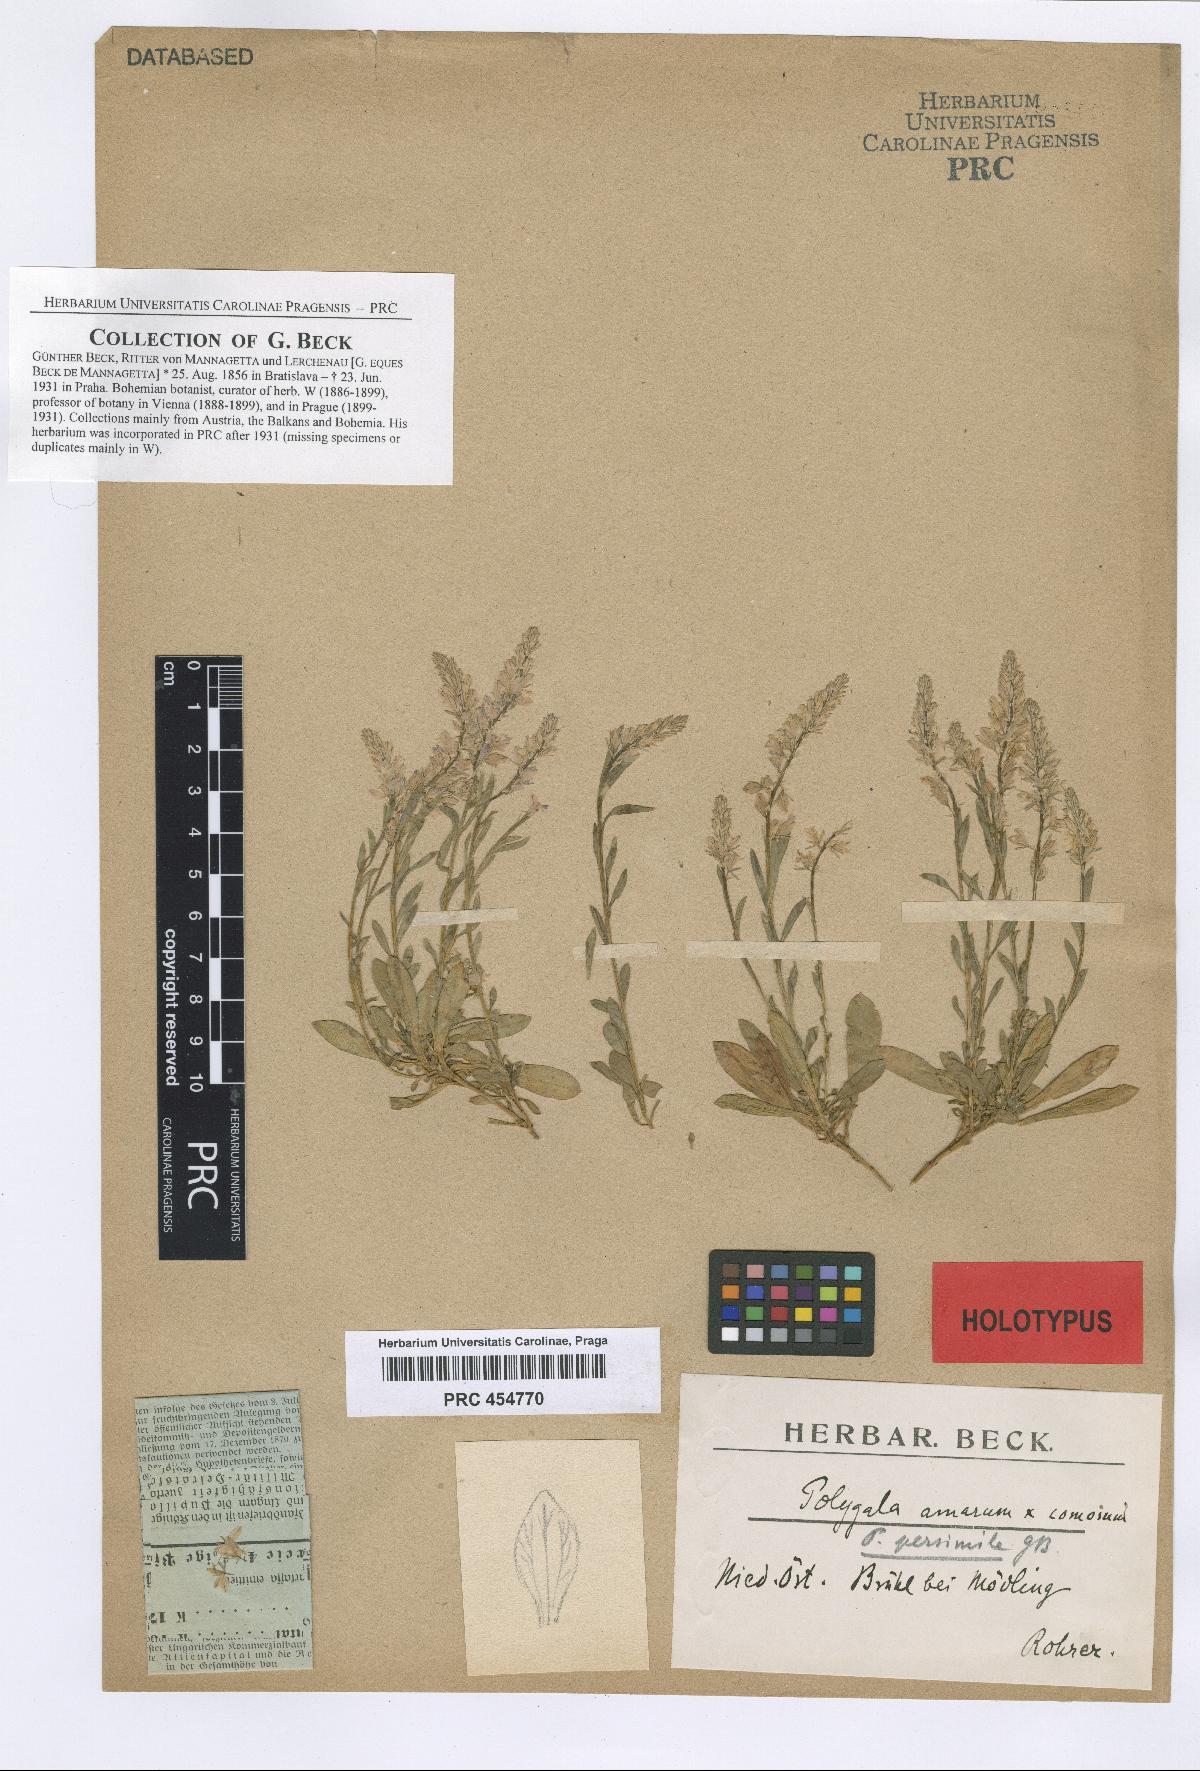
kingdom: Plantae
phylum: Tracheophyta
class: Magnoliopsida
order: Fabales
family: Polygalaceae
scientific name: Polygalaceae
